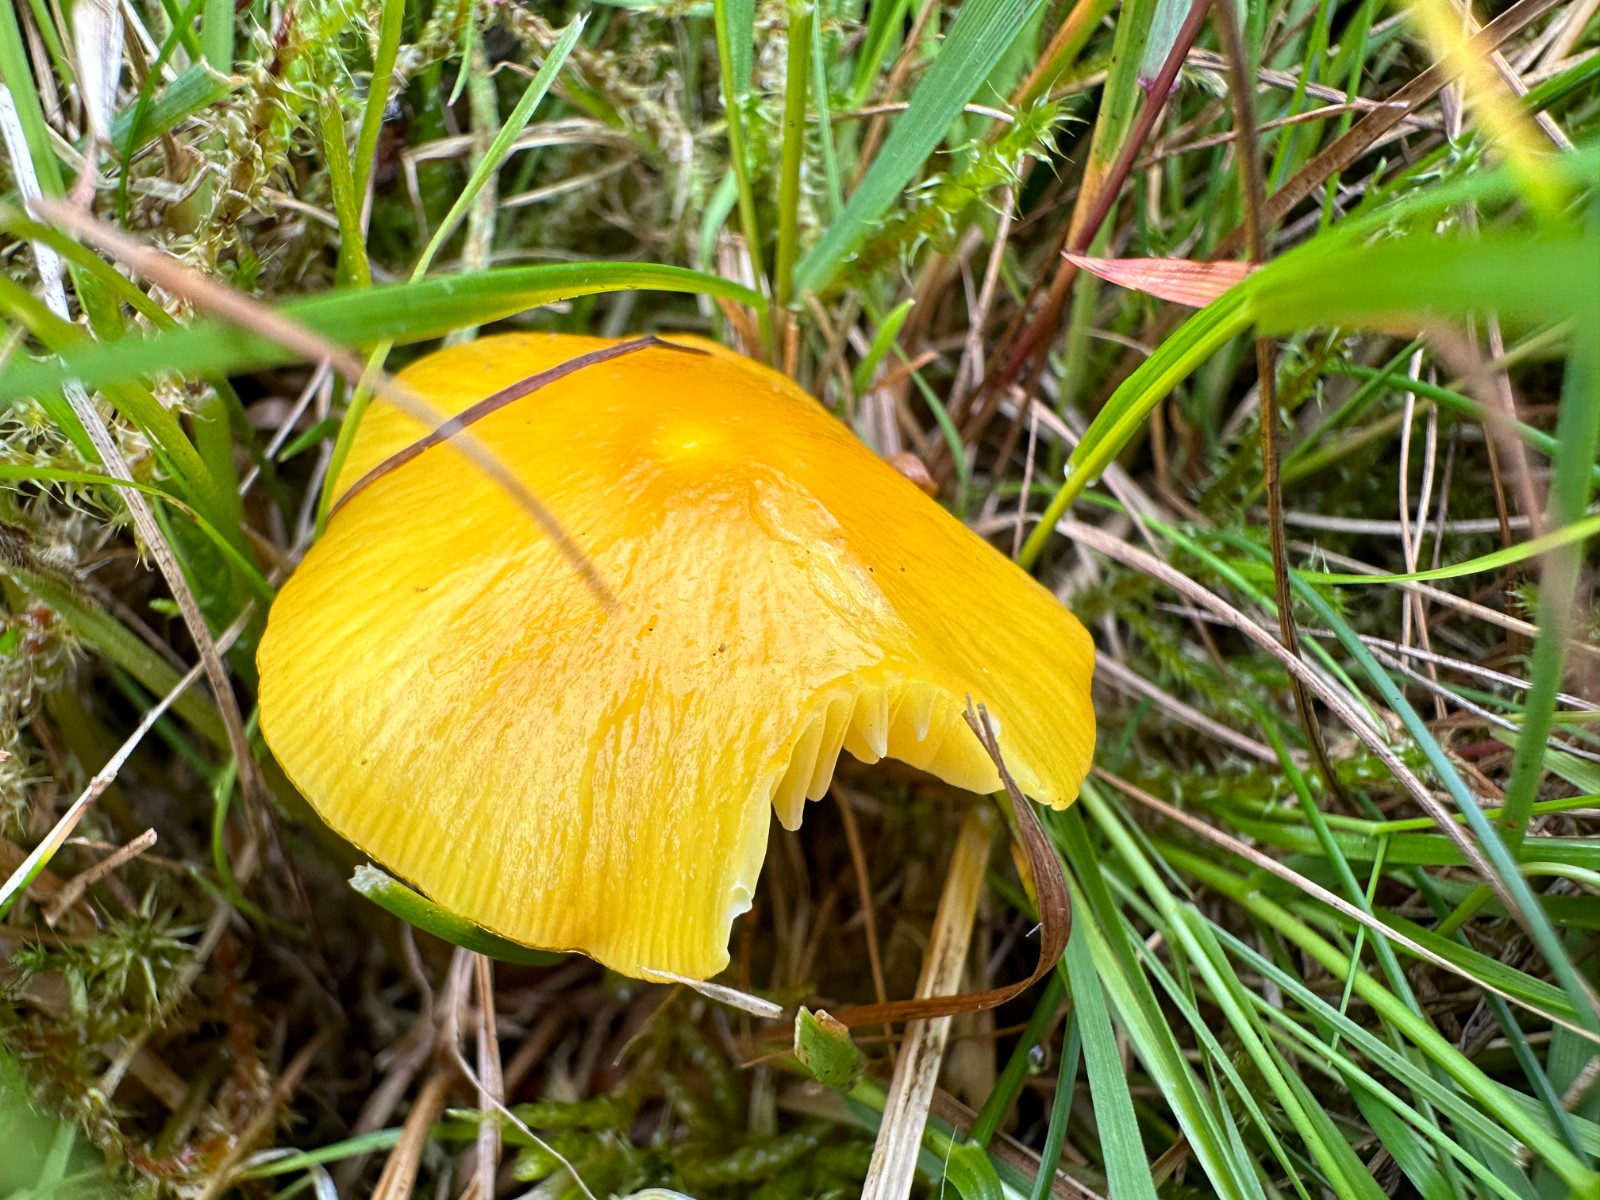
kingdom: Fungi
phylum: Basidiomycota
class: Agaricomycetes
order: Agaricales
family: Hygrophoraceae
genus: Hygrocybe
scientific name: Hygrocybe chlorophana
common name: gul vokshat
